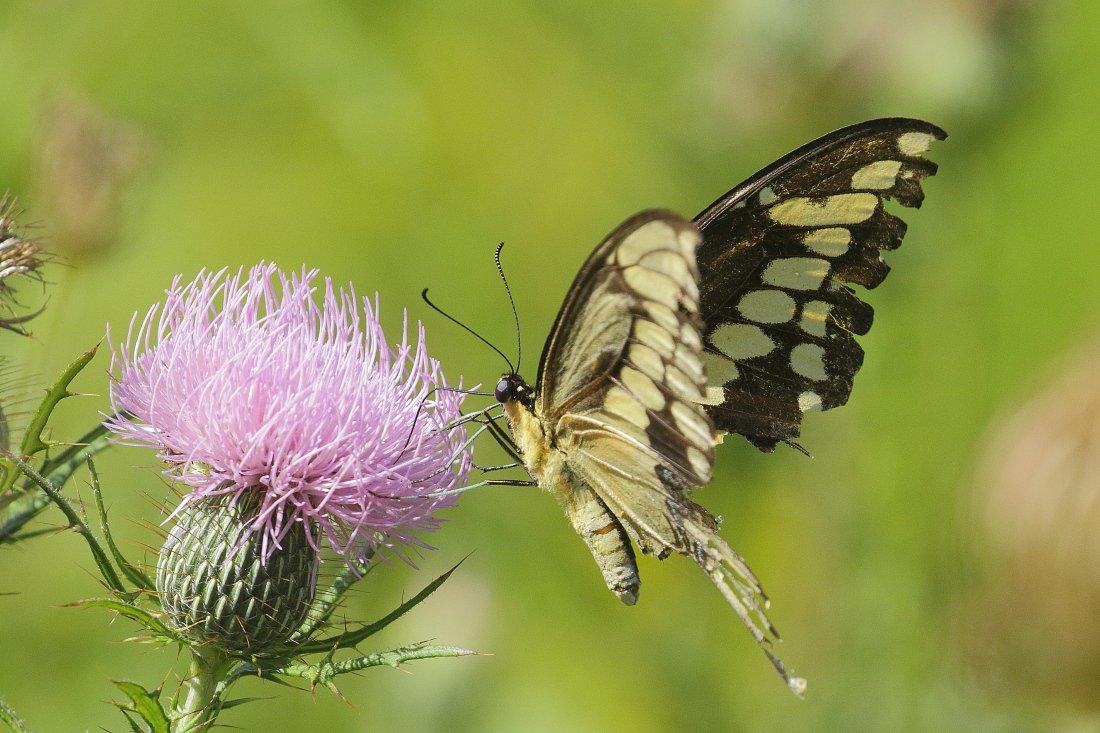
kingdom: Animalia
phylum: Arthropoda
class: Insecta
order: Lepidoptera
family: Papilionidae
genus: Papilio
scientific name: Papilio cresphontes
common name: Eastern Giant Swallowtail
